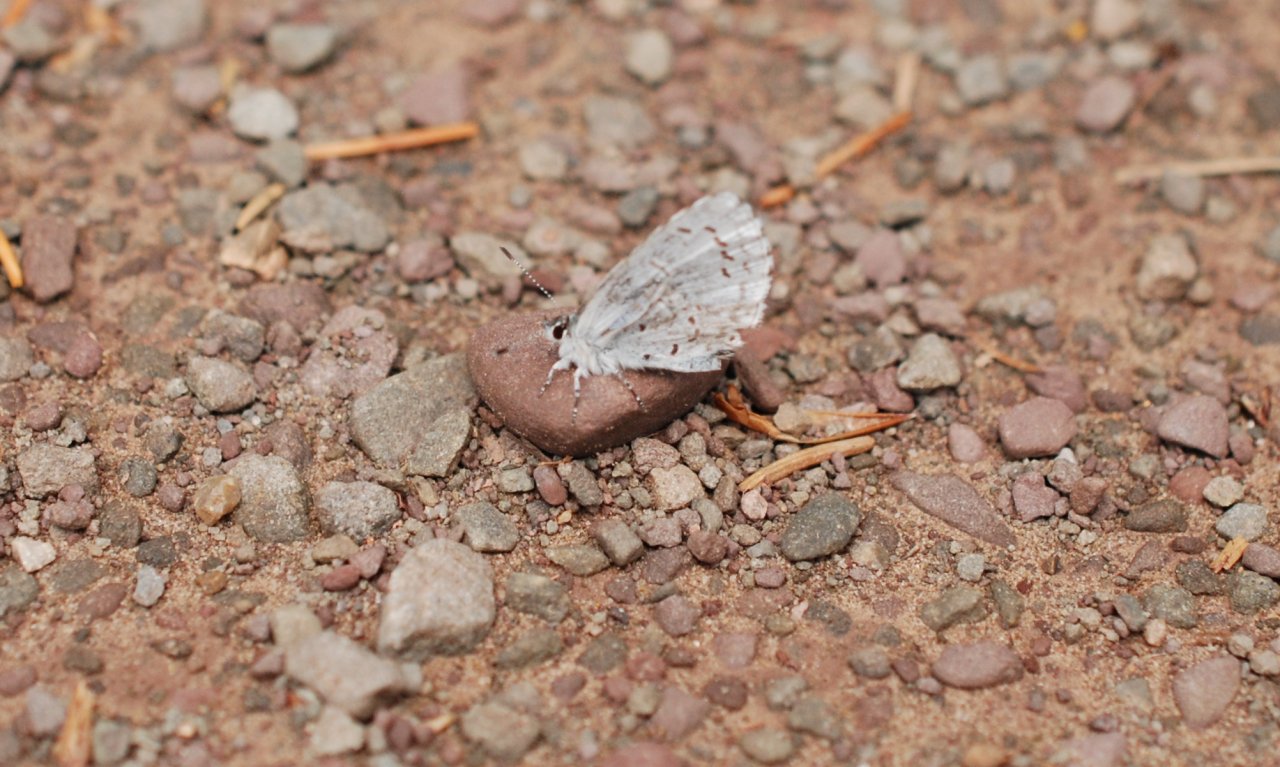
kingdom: Animalia
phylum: Arthropoda
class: Insecta
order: Lepidoptera
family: Lycaenidae
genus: Celastrina
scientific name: Celastrina ladon
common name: Spring Azure
